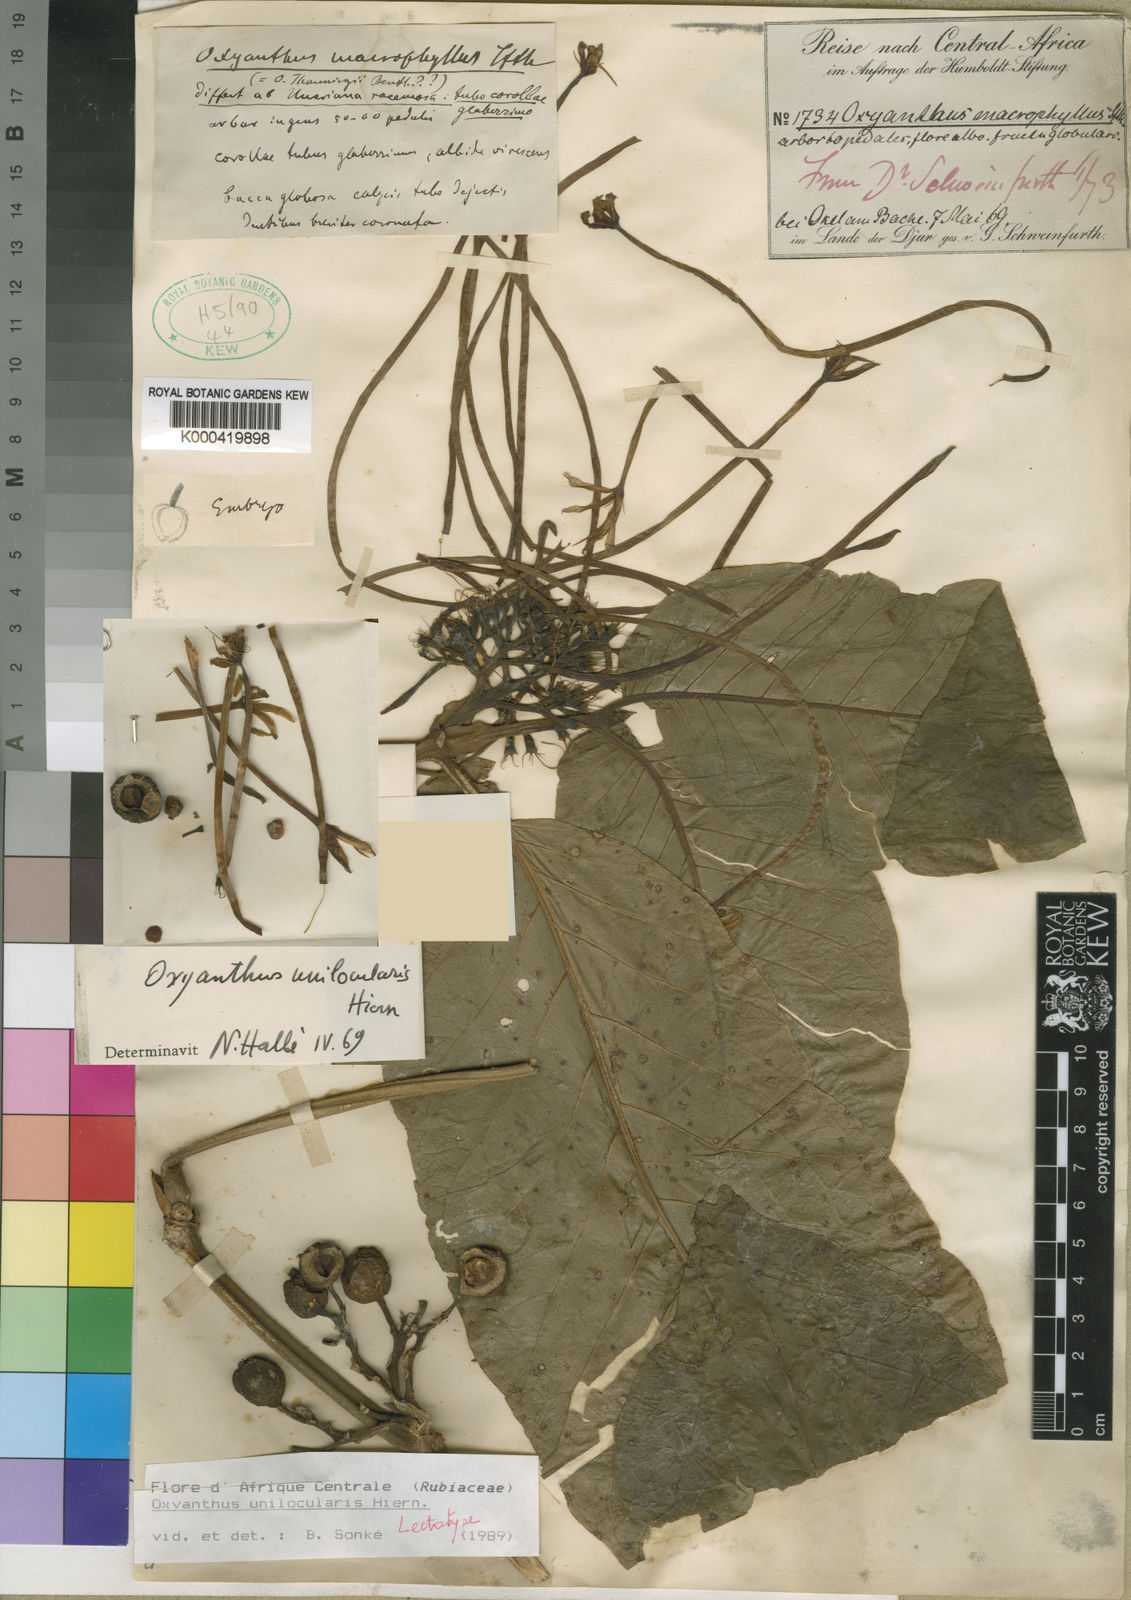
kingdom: Plantae
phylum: Tracheophyta
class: Magnoliopsida
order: Gentianales
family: Rubiaceae
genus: Oxyanthus
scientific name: Oxyanthus unilocularis
